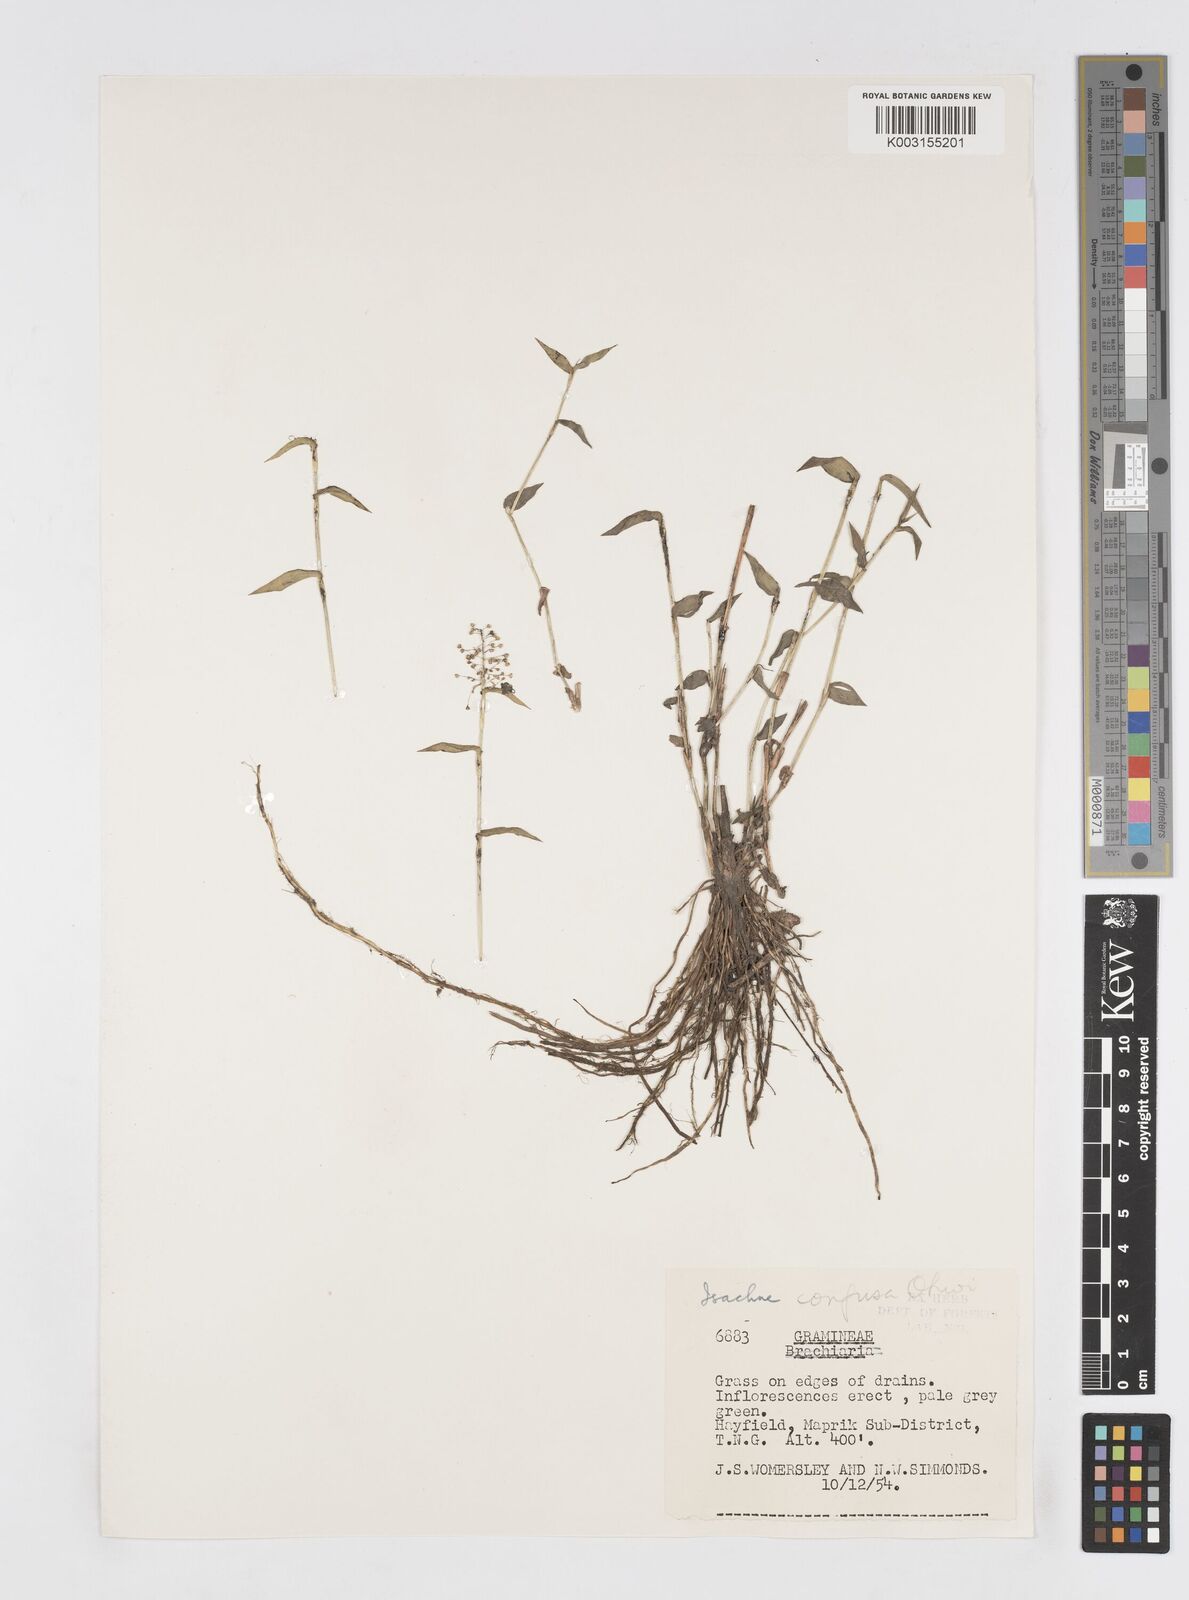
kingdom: Plantae
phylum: Tracheophyta
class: Liliopsida
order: Poales
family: Poaceae
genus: Isachne
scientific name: Isachne confusa
